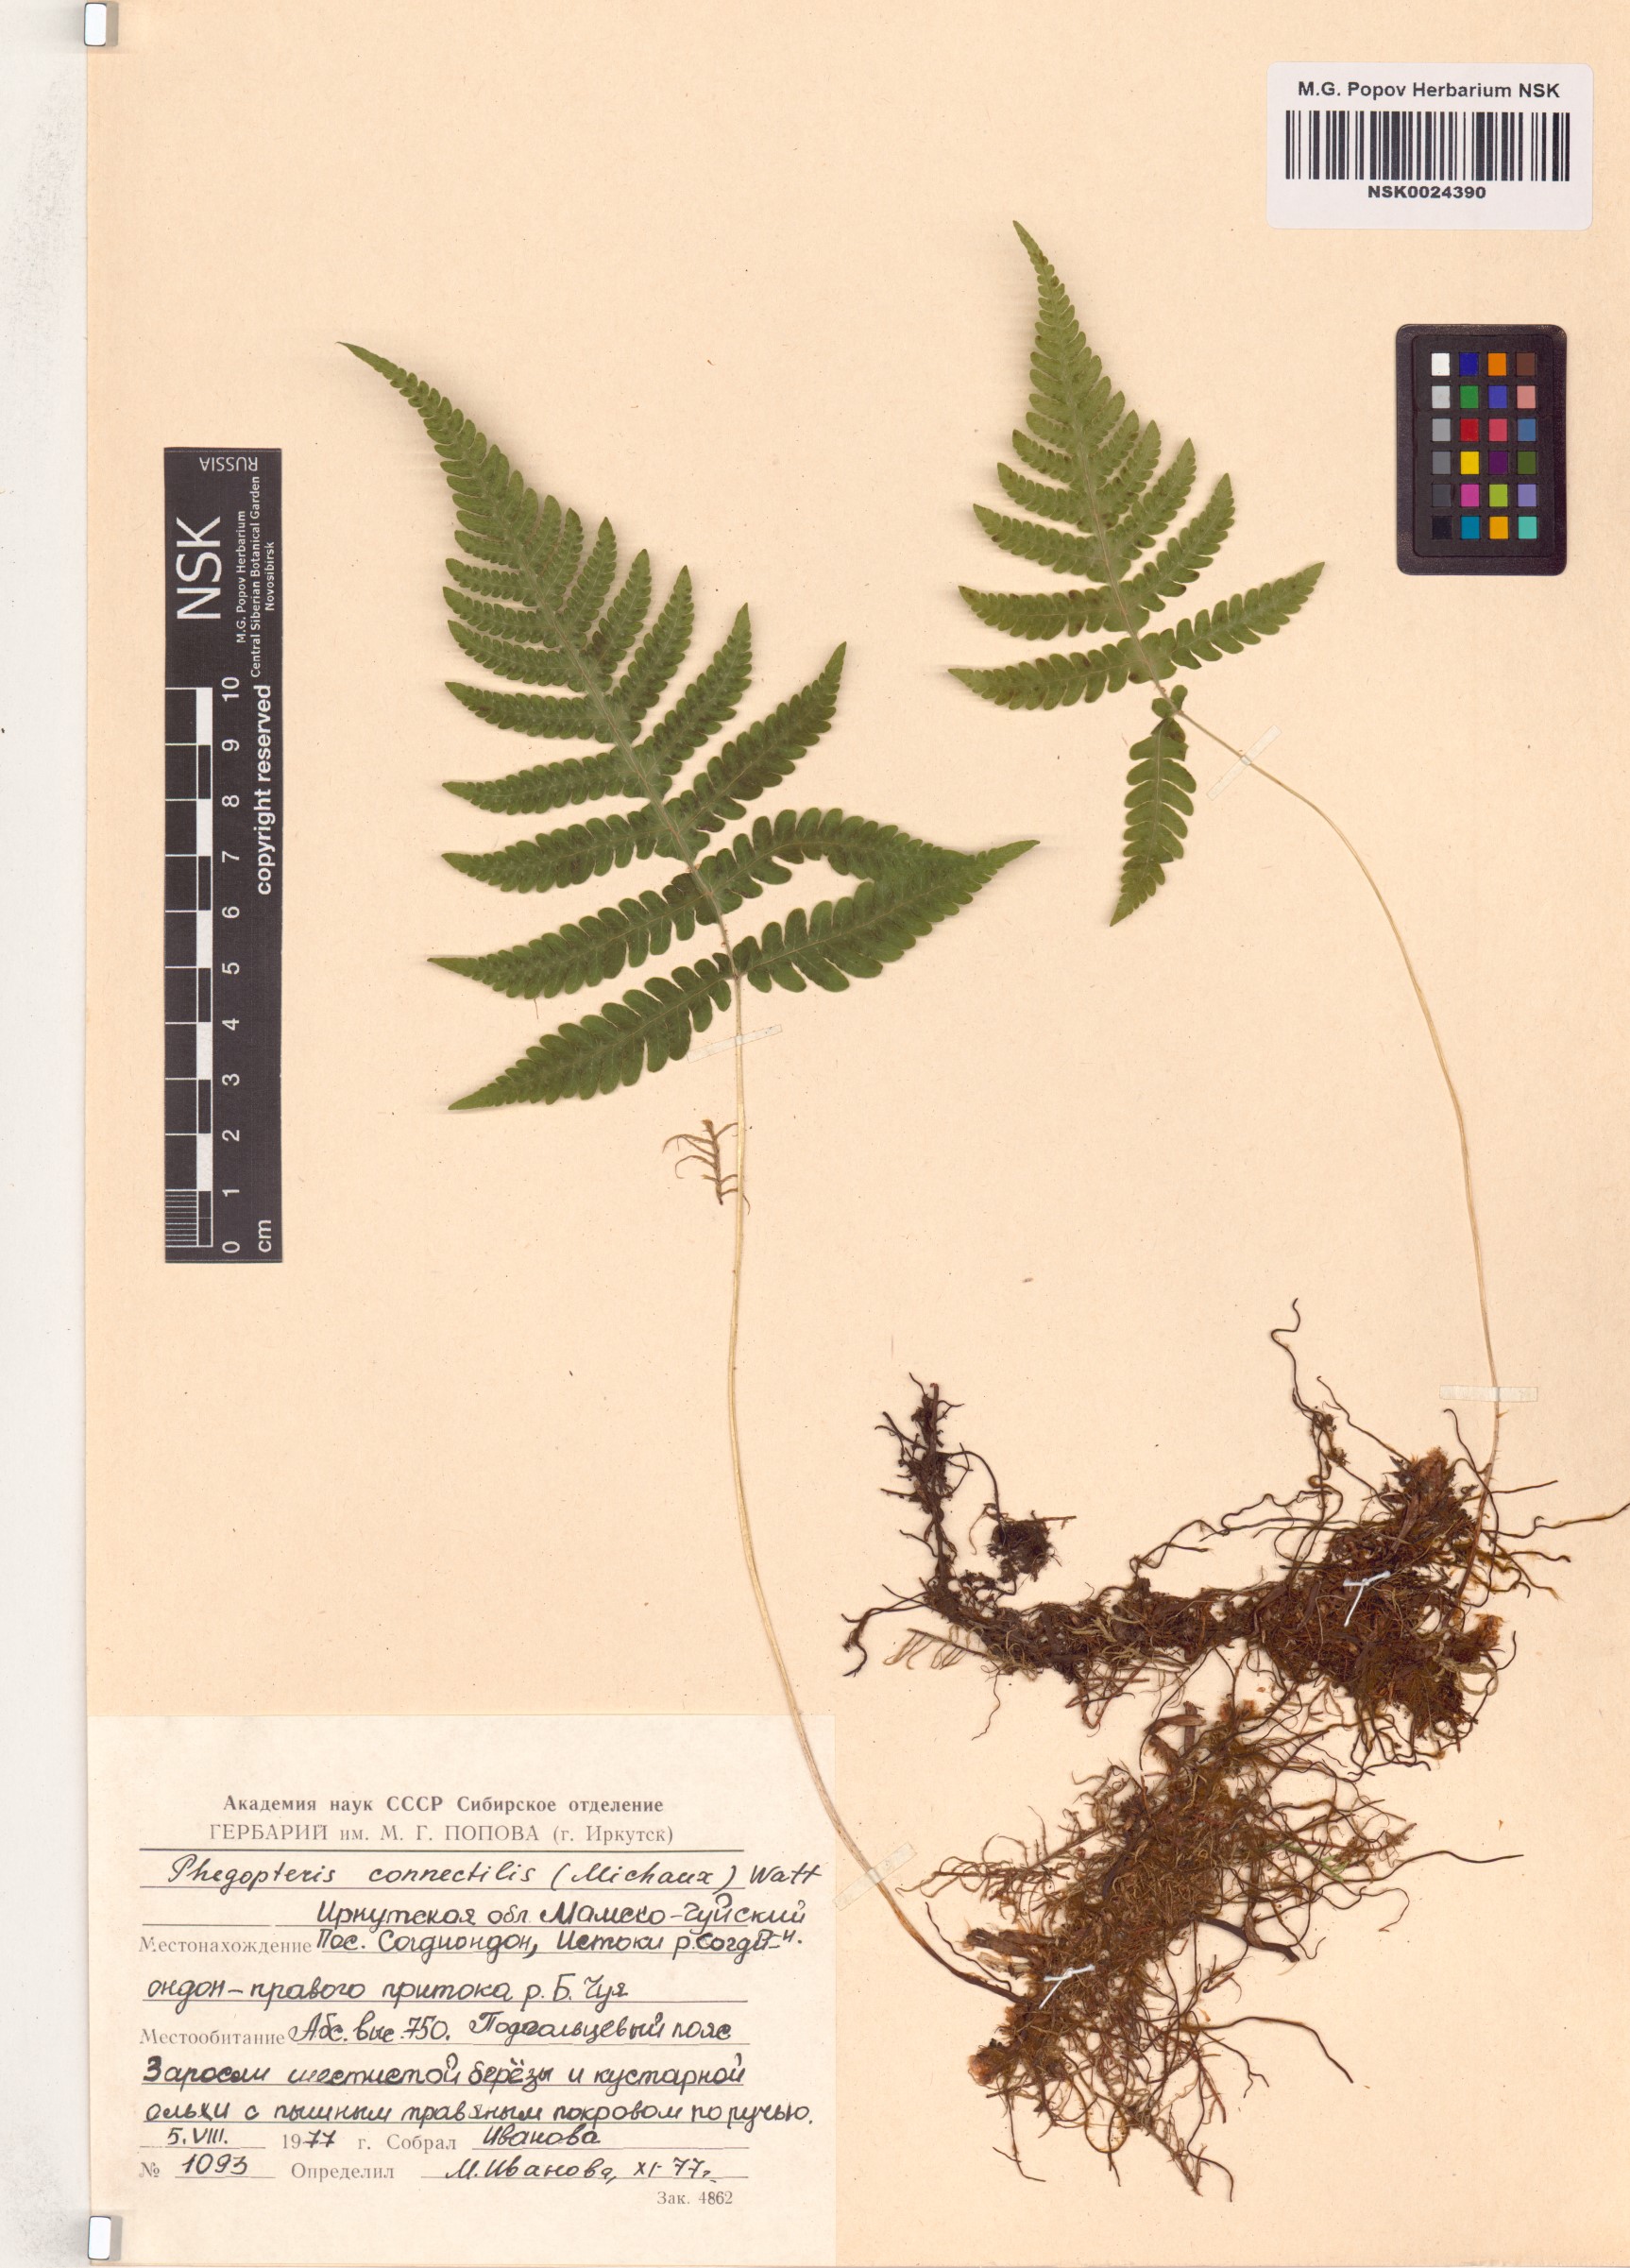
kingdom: Plantae
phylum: Tracheophyta
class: Polypodiopsida
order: Polypodiales
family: Thelypteridaceae
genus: Phegopteris
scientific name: Phegopteris connectilis
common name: Beech fern
